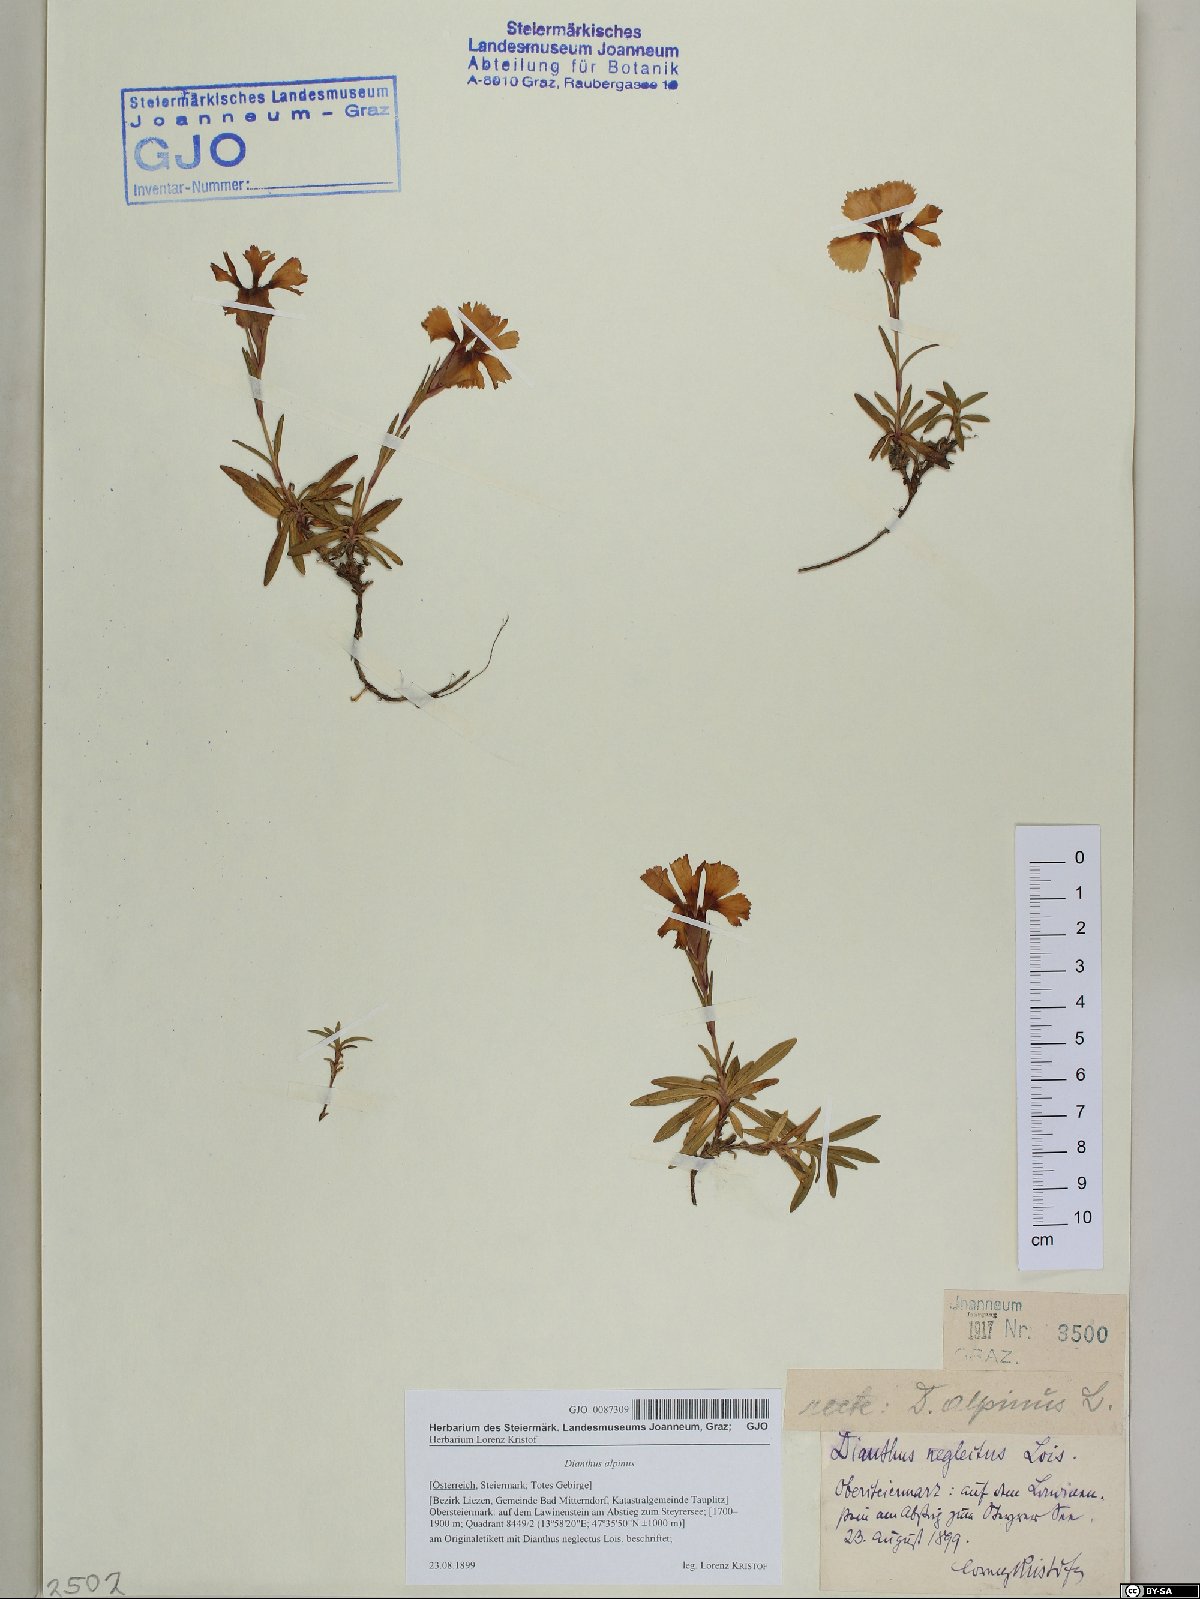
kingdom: Plantae
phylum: Tracheophyta
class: Magnoliopsida
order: Caryophyllales
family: Caryophyllaceae
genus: Dianthus
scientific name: Dianthus alpinus
